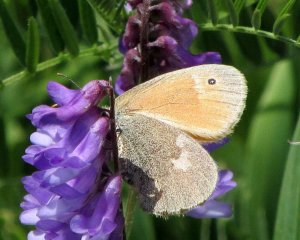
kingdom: Animalia
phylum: Arthropoda
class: Insecta
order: Lepidoptera
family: Nymphalidae
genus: Coenonympha
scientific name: Coenonympha tullia
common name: Large Heath
